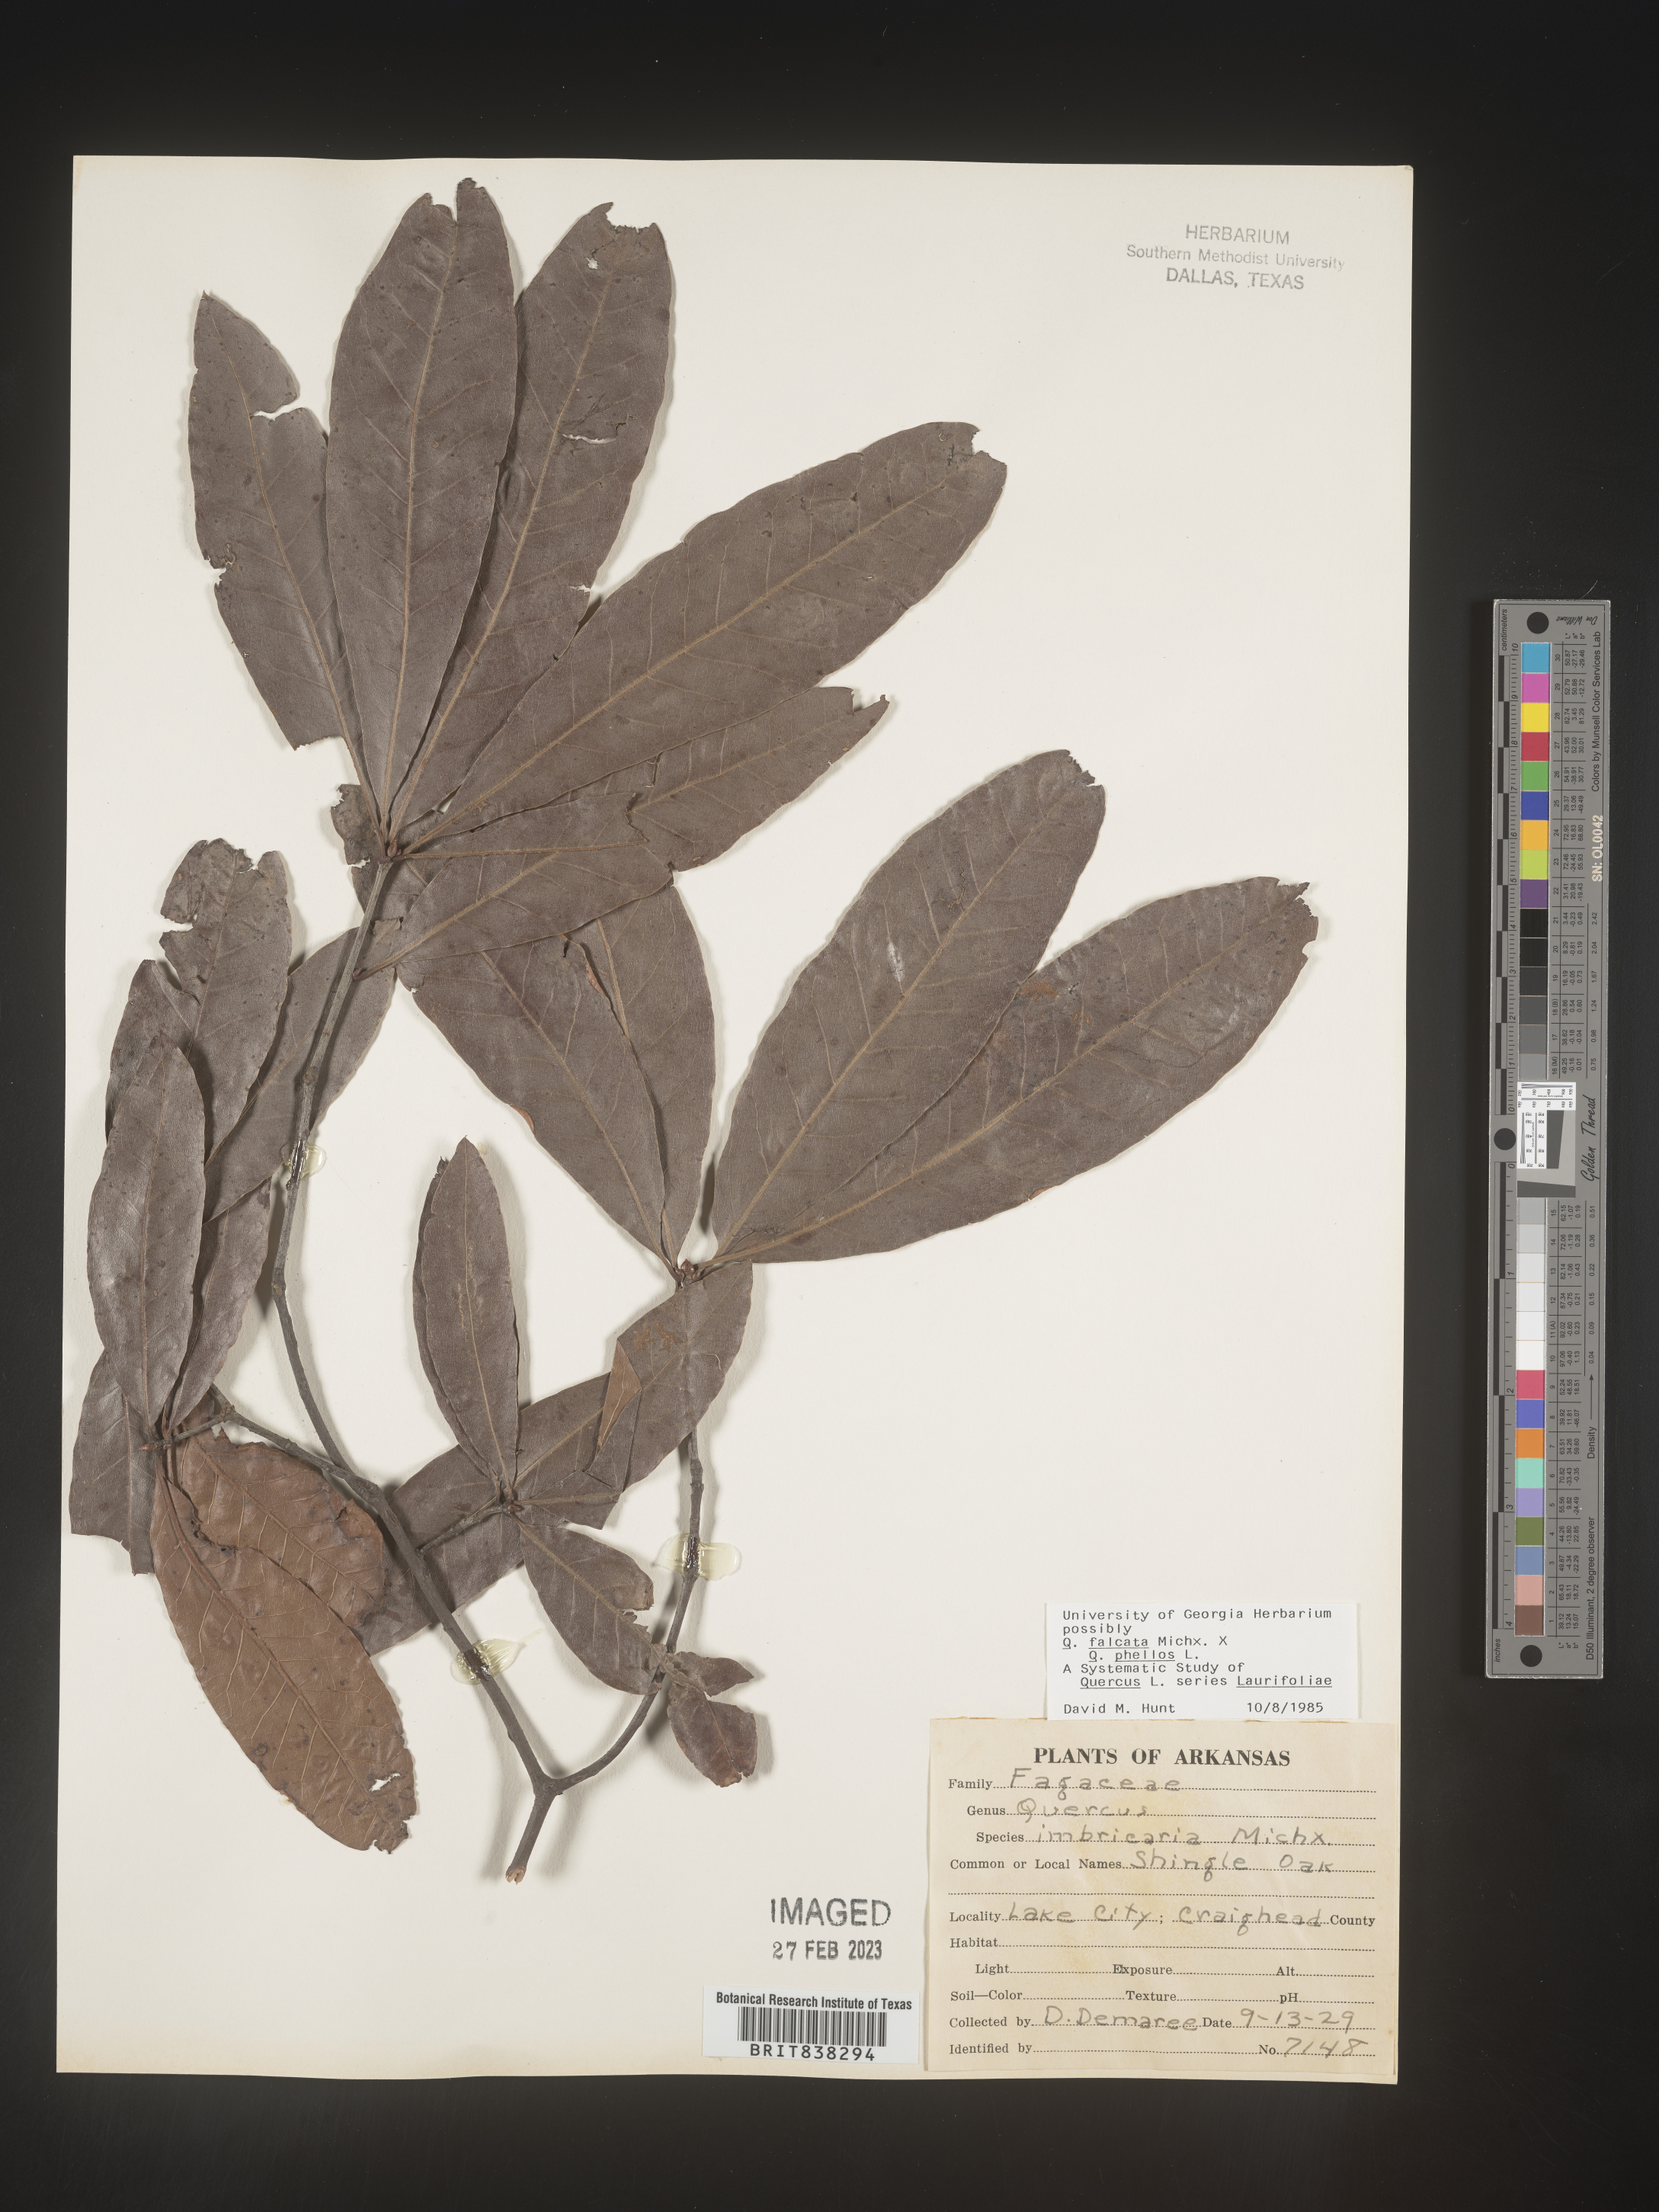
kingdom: Plantae
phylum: Tracheophyta
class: Magnoliopsida
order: Fagales
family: Fagaceae
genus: Quercus
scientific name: Quercus falcata
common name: Southern red oak
